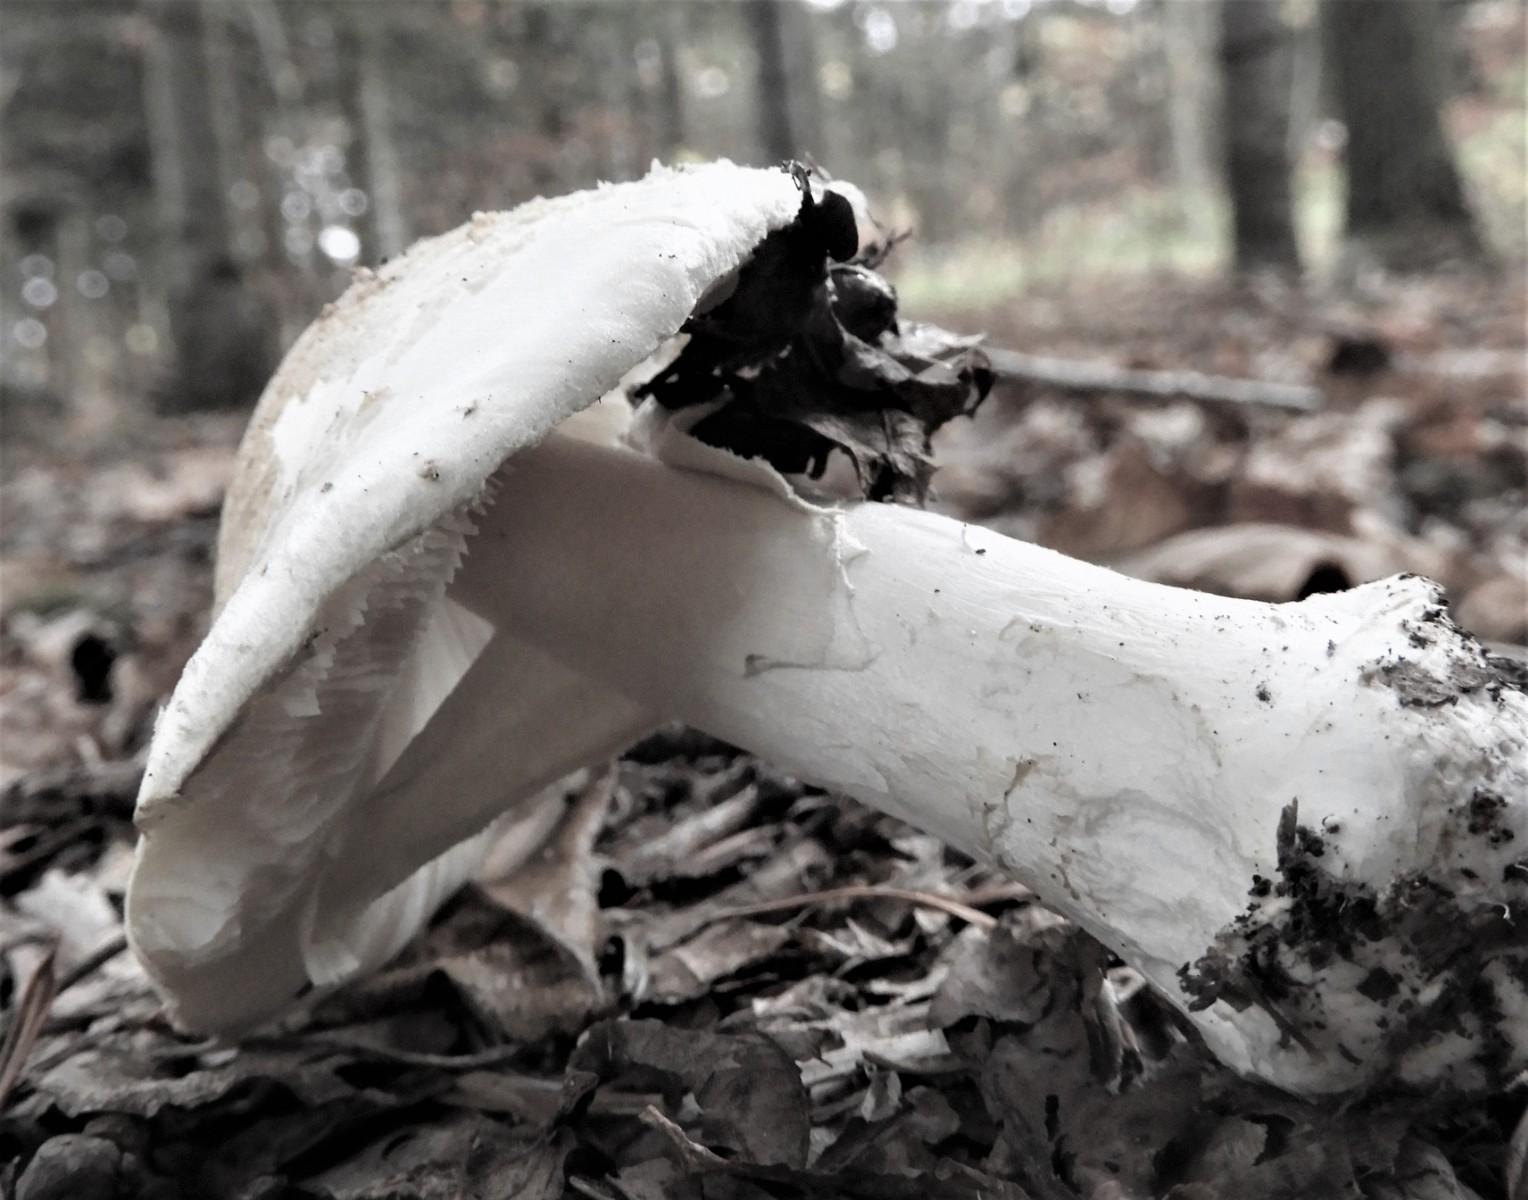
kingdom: Fungi
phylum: Basidiomycota
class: Agaricomycetes
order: Agaricales
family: Amanitaceae
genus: Amanita
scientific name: Amanita
